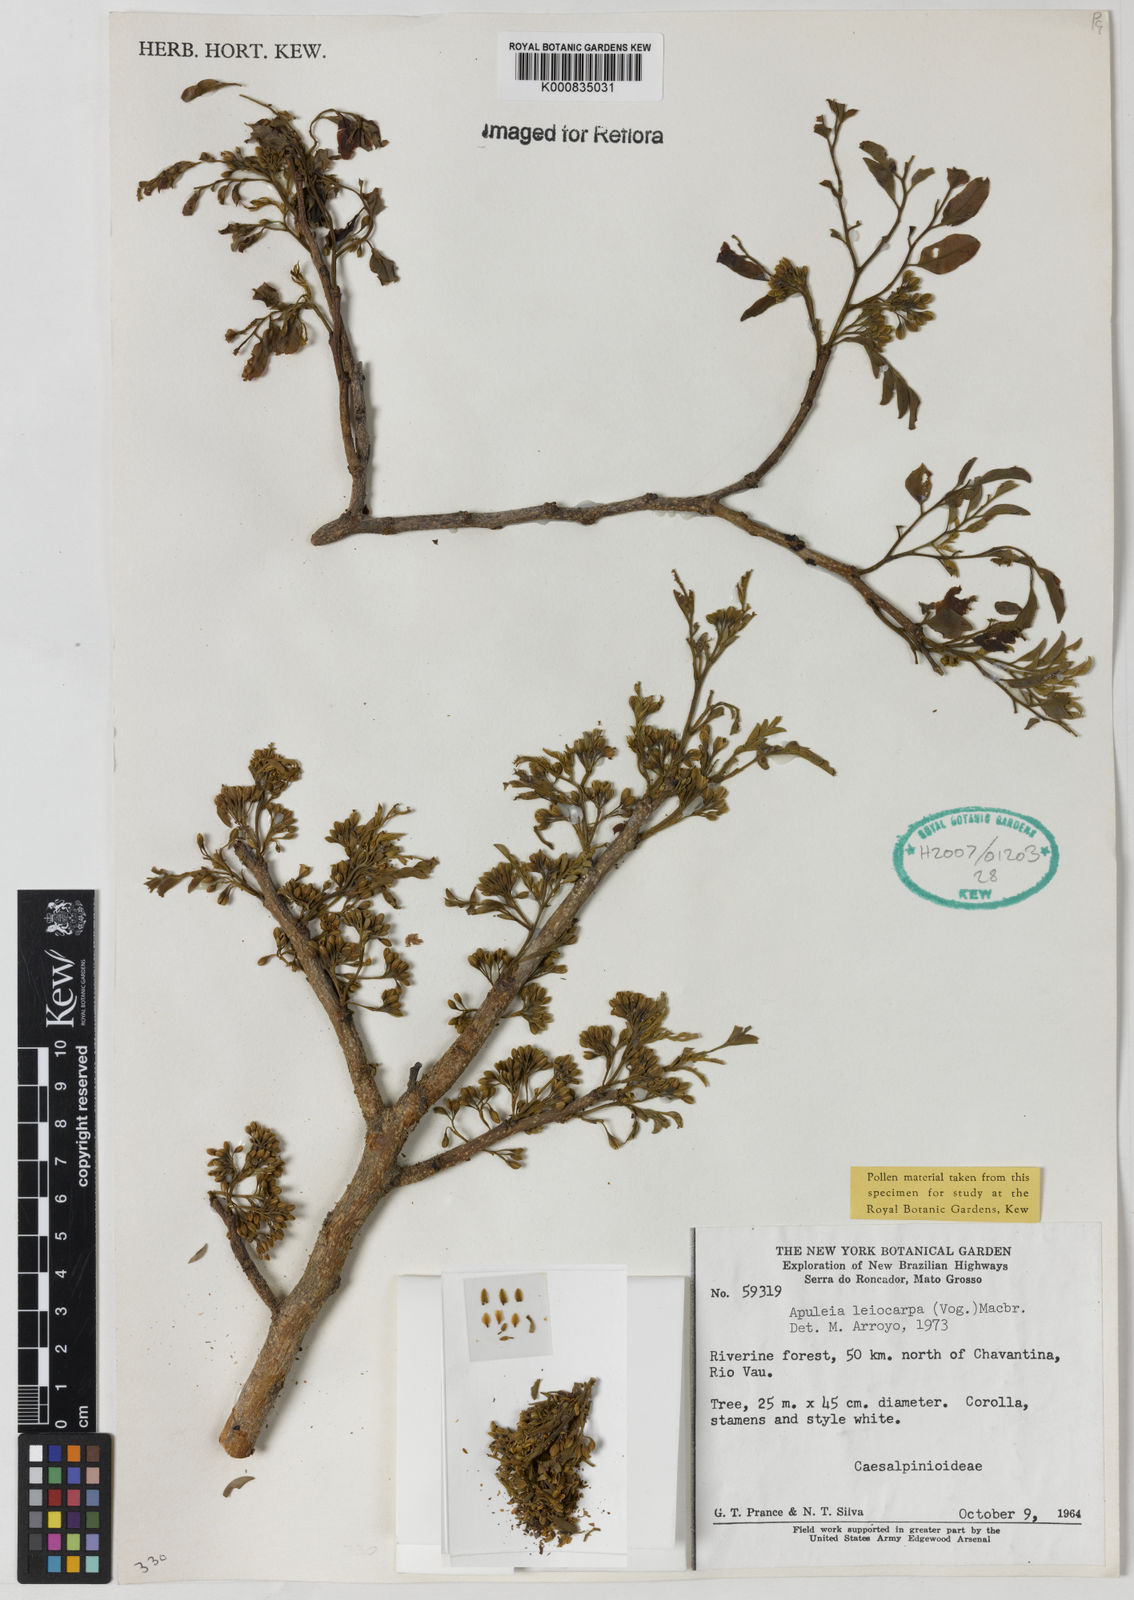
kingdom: Plantae
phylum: Tracheophyta
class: Magnoliopsida
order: Fabales
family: Fabaceae
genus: Apuleia
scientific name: Apuleia leiocarpa
